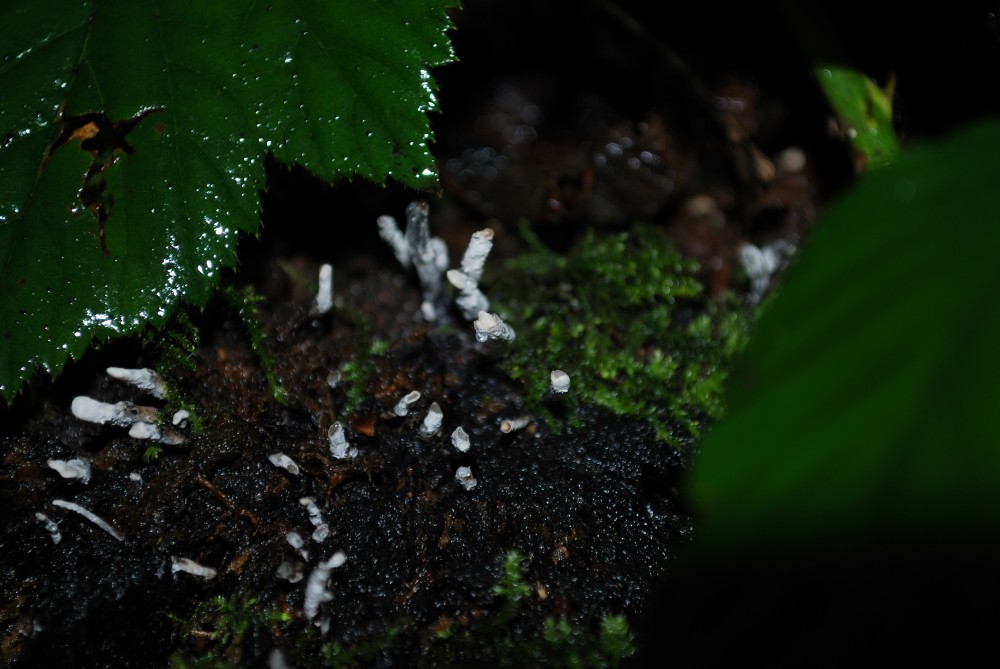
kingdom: Fungi
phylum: Ascomycota
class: Sordariomycetes
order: Xylariales
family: Xylariaceae
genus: Xylaria
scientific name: Xylaria hypoxylon
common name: grenet stødsvamp
